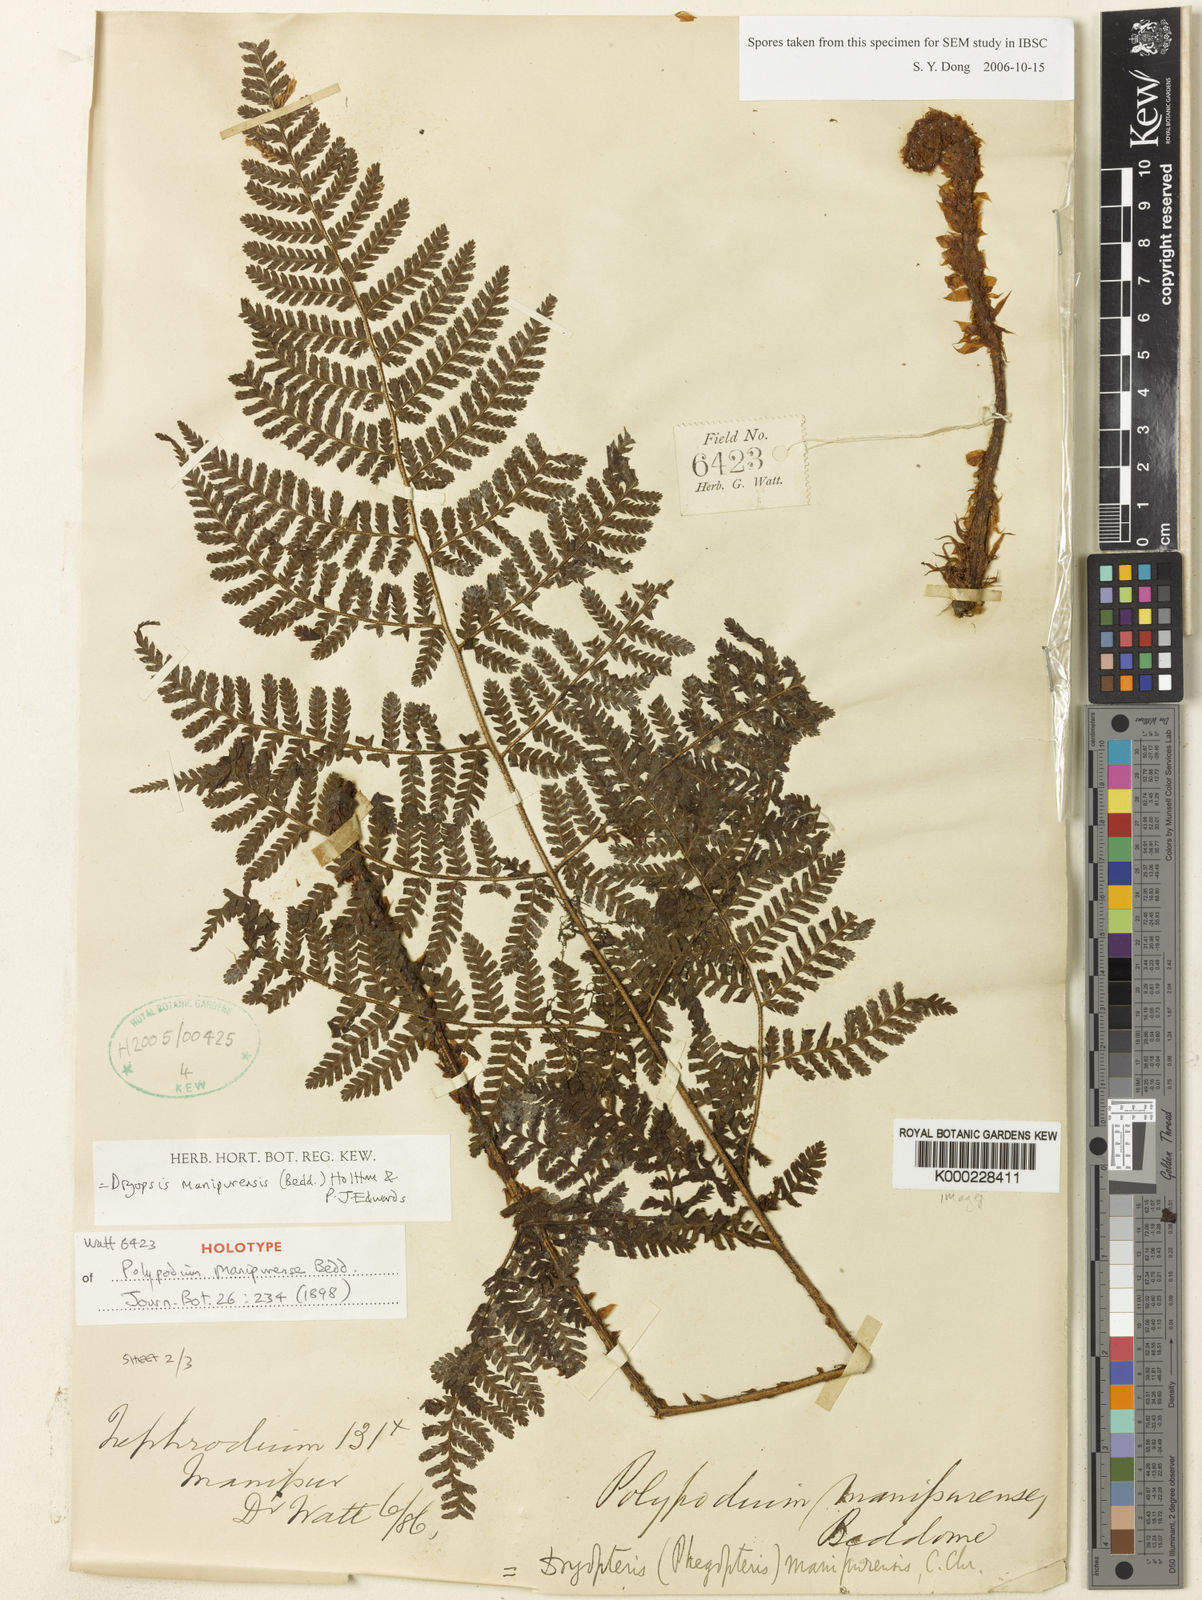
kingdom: Plantae
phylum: Tracheophyta
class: Polypodiopsida
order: Polypodiales
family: Dryopteridaceae
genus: Dryopteris
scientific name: Dryopteris manipurensis
